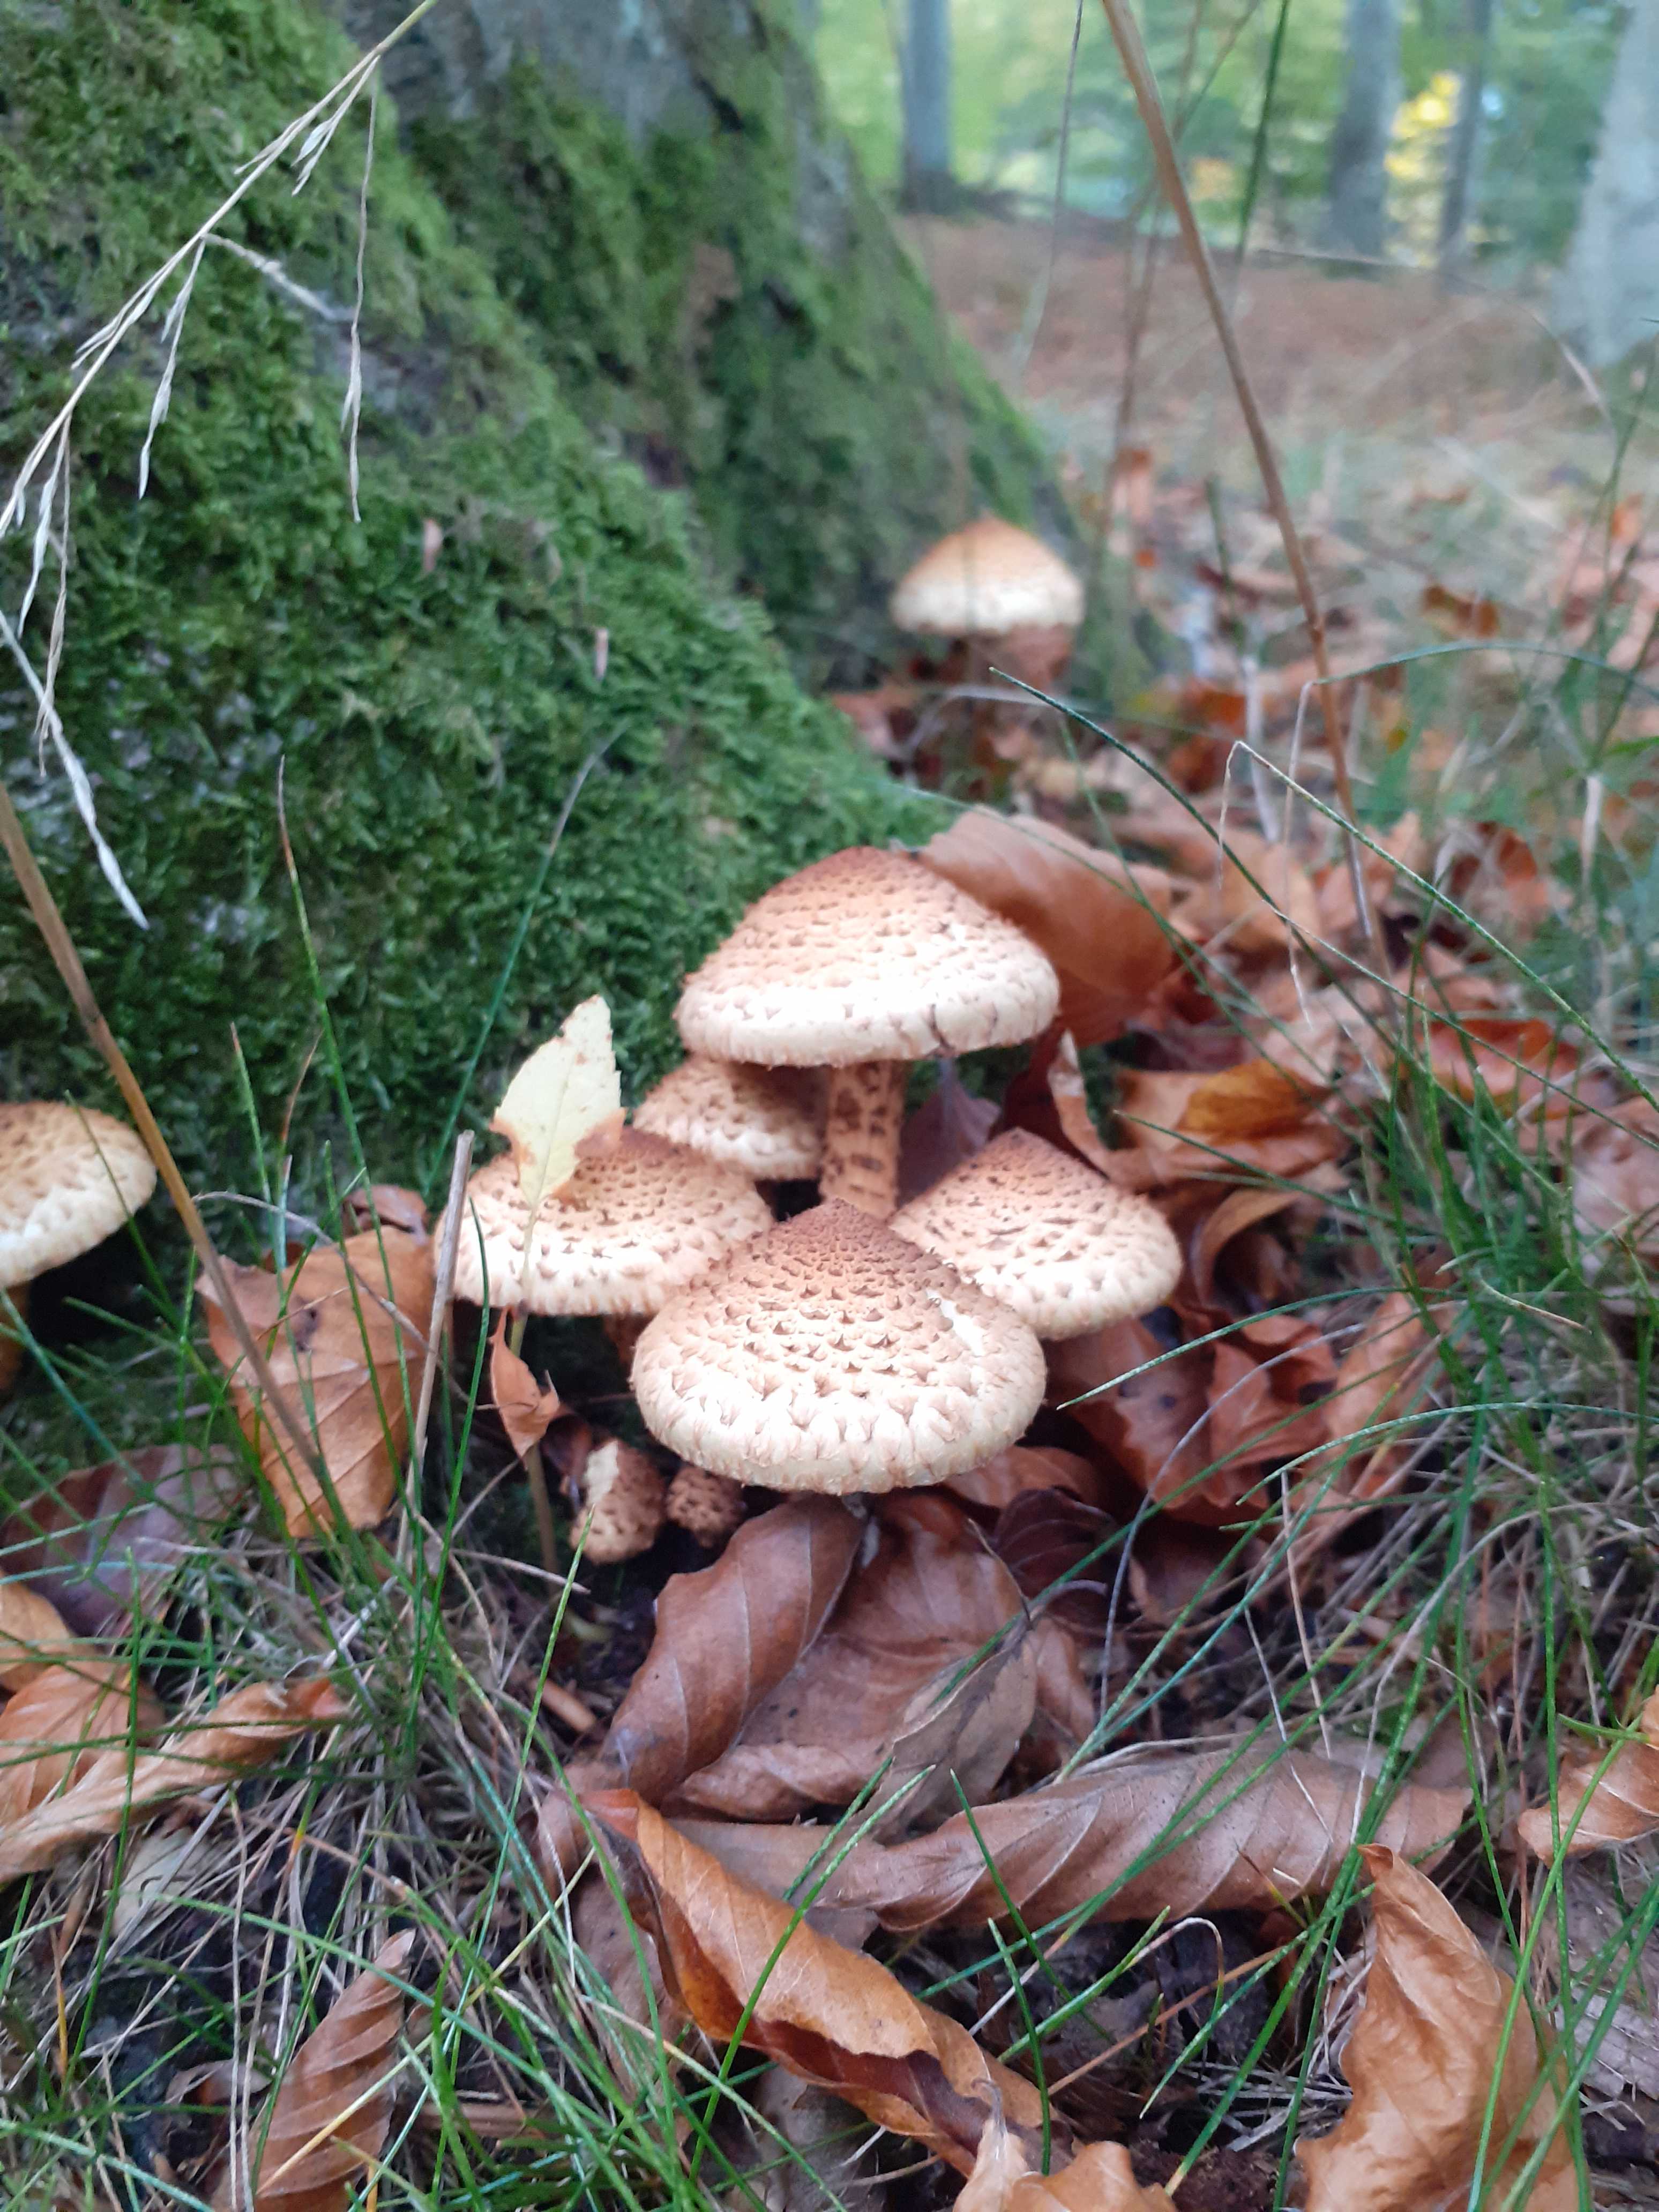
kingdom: Fungi
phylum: Basidiomycota
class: Agaricomycetes
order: Agaricales
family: Strophariaceae
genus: Pholiota
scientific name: Pholiota squarrosa
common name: krumskællet skælhat
